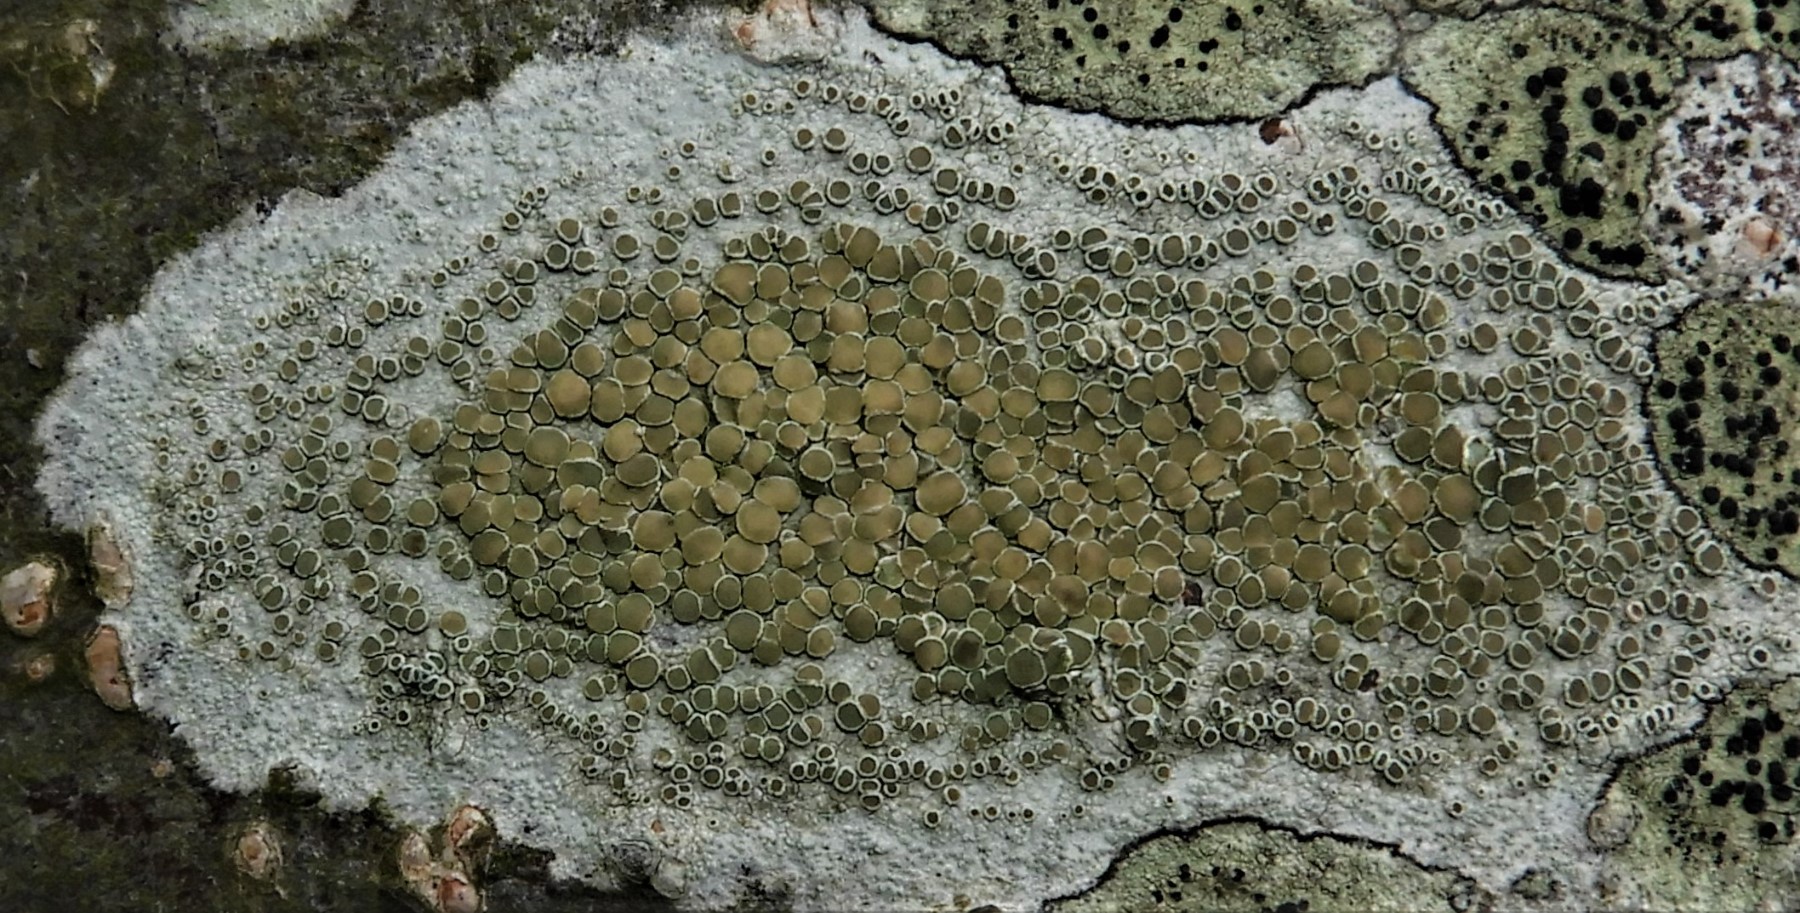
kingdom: Fungi
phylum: Ascomycota
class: Lecanoromycetes
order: Lecanorales
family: Lecanoraceae
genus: Lecanora
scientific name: Lecanora chlarotera
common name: brun kantskivelav
